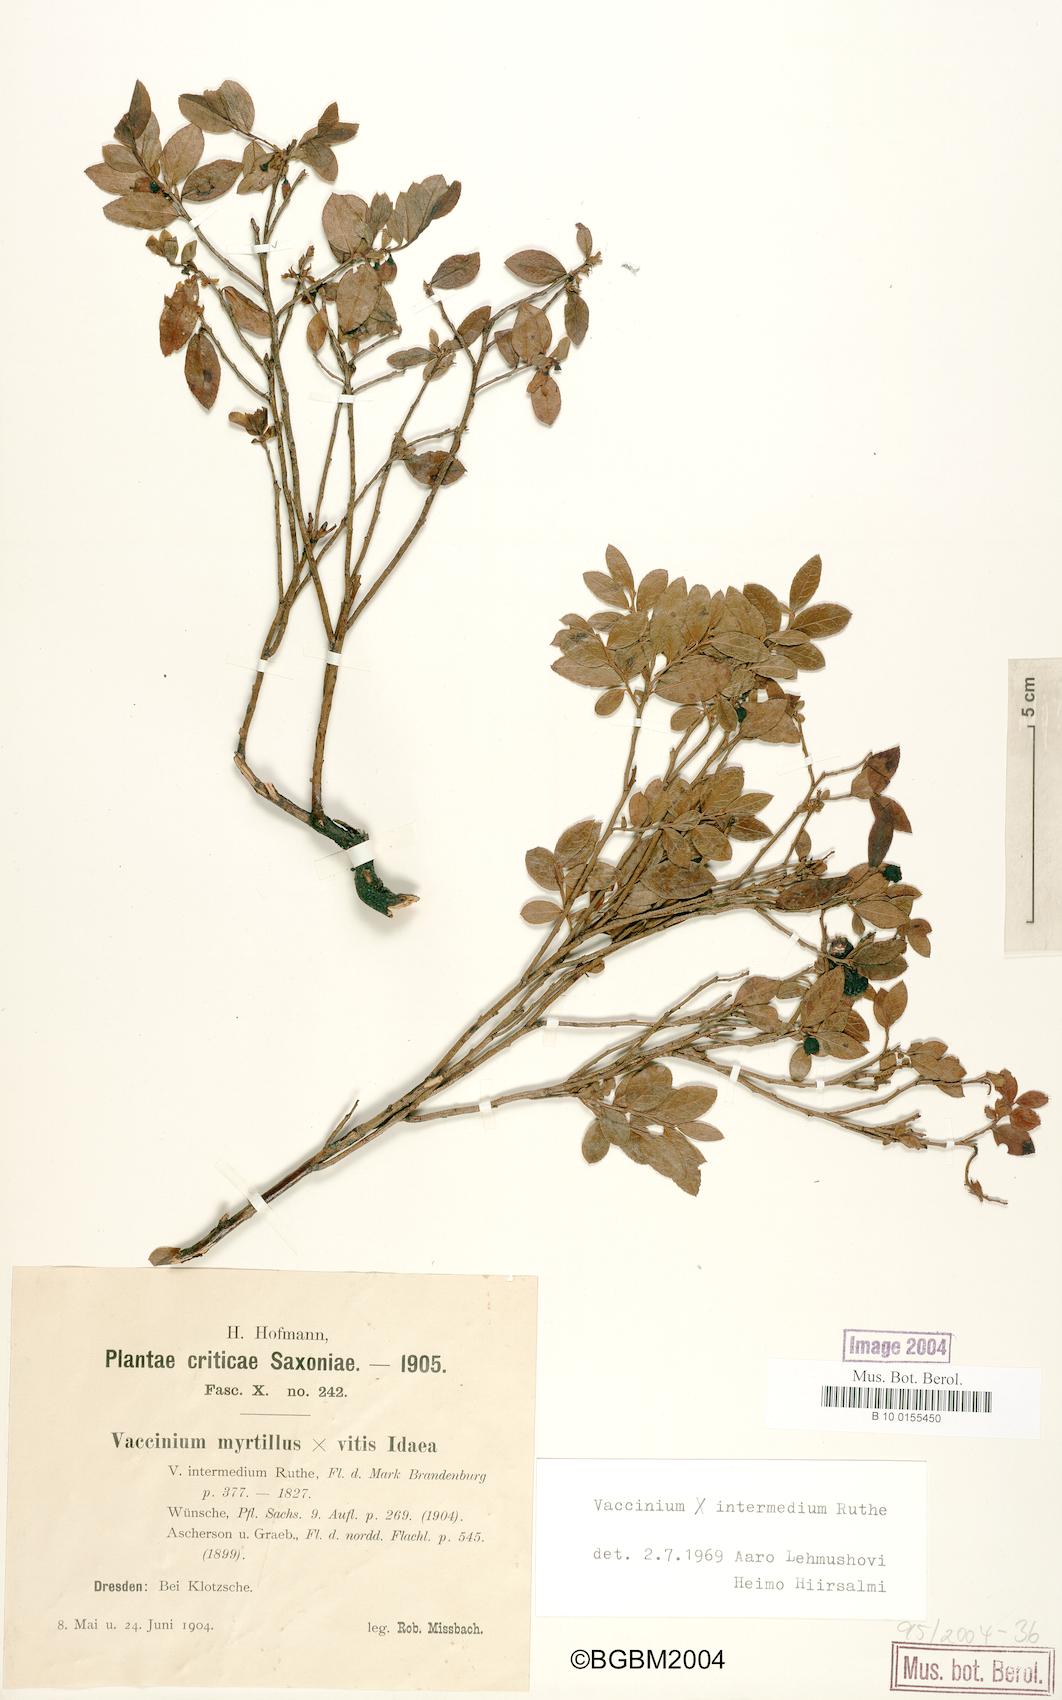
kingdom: Plantae
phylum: Tracheophyta
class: Magnoliopsida
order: Ericales
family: Ericaceae
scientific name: Ericaceae
